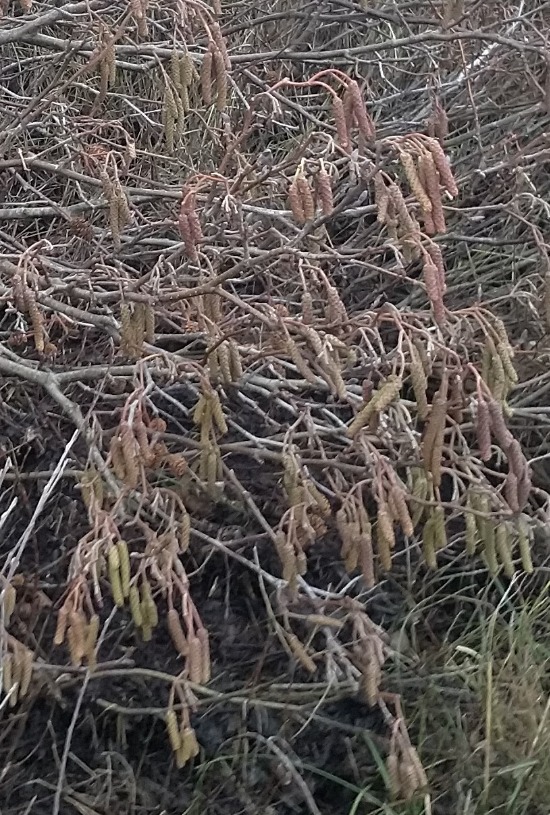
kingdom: Plantae
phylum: Tracheophyta
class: Magnoliopsida
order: Fagales
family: Betulaceae
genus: Alnus
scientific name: Alnus glutinosa
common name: Rød-el
